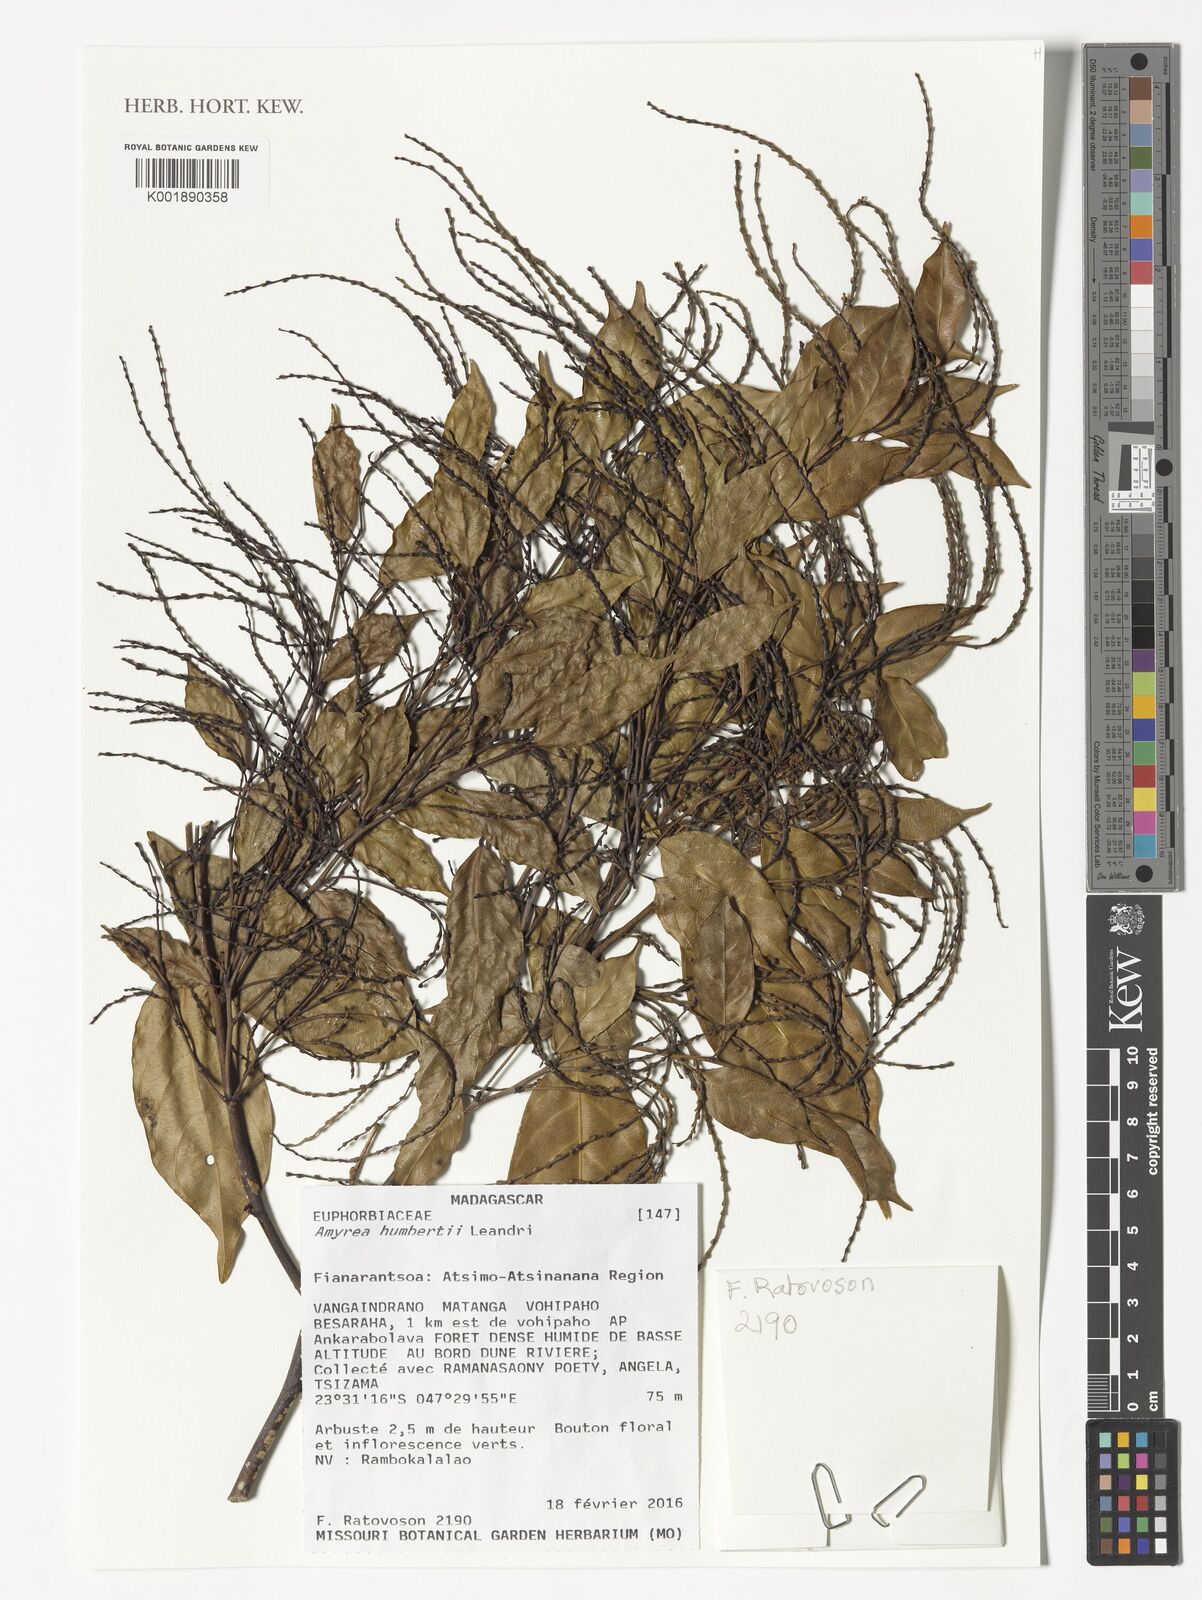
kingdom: Plantae
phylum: Tracheophyta
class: Magnoliopsida
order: Malpighiales
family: Euphorbiaceae
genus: Amyrea
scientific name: Amyrea humbertii
